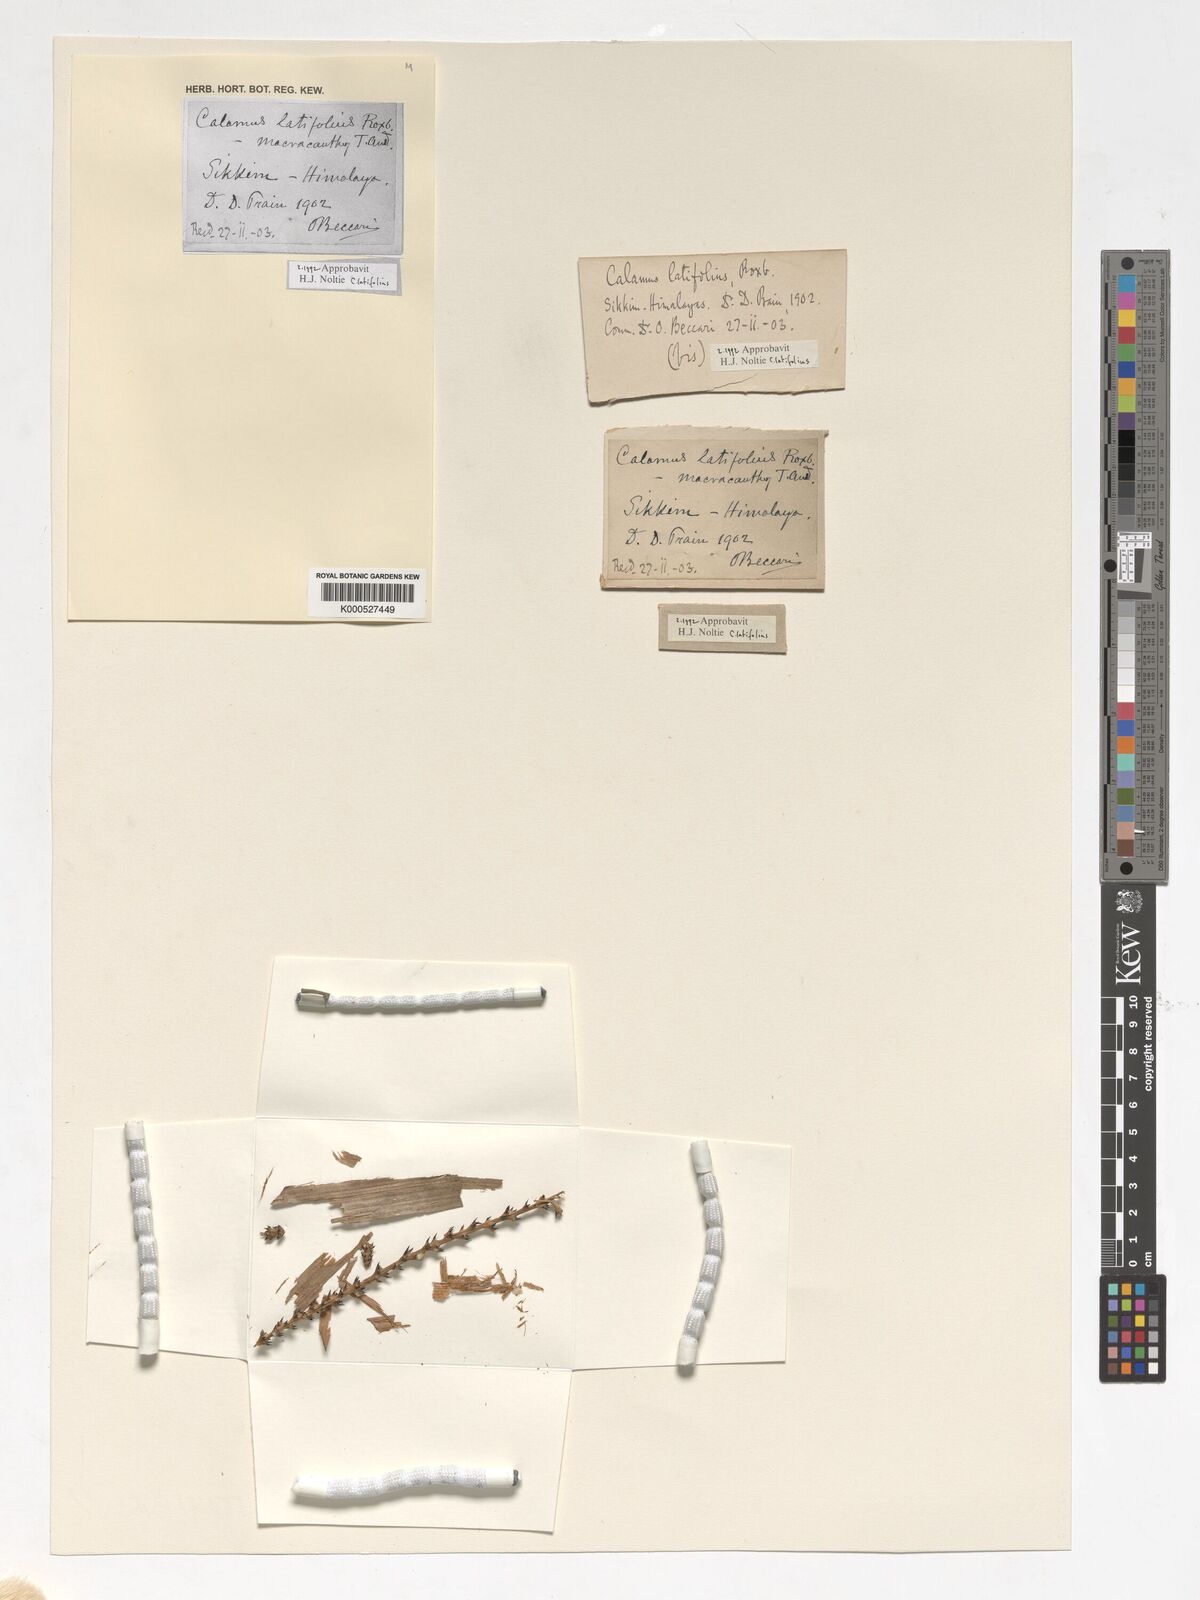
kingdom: Plantae
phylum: Tracheophyta
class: Liliopsida
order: Arecales
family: Arecaceae
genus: Calamus
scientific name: Calamus latifolius
